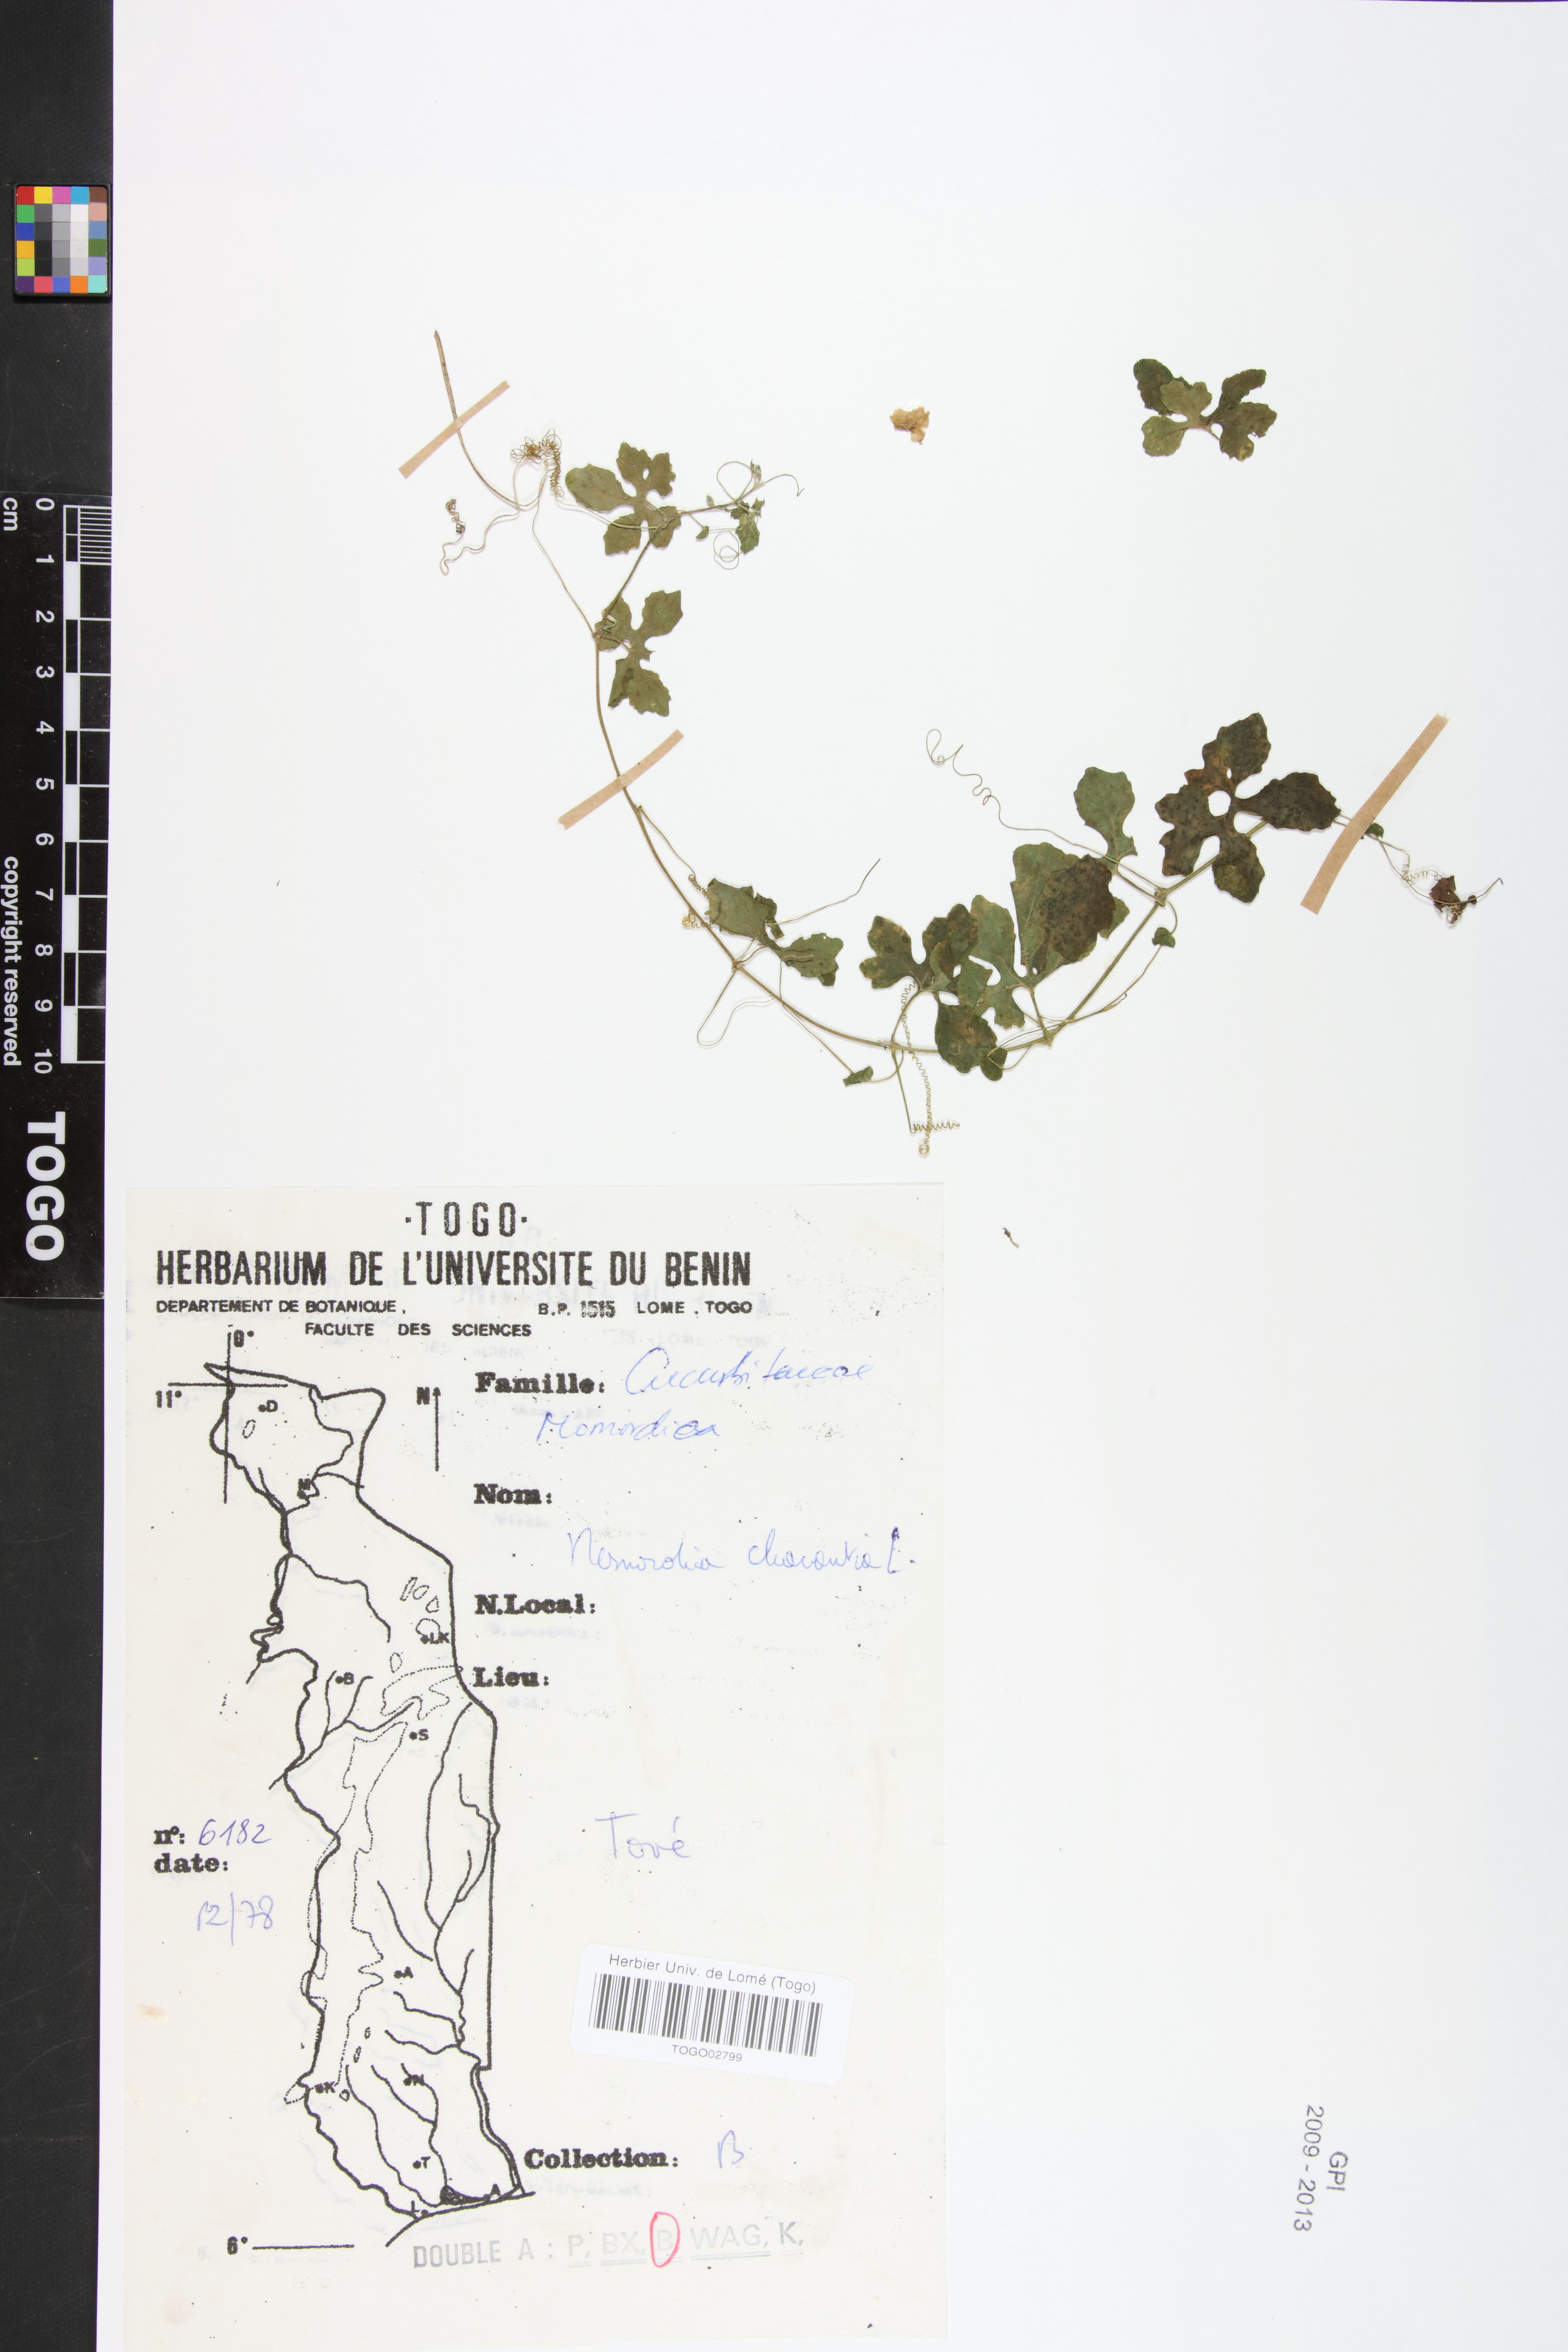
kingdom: Plantae
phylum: Tracheophyta
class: Magnoliopsida
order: Cucurbitales
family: Cucurbitaceae
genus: Momordica
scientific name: Momordica charantia
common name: Balsampear
